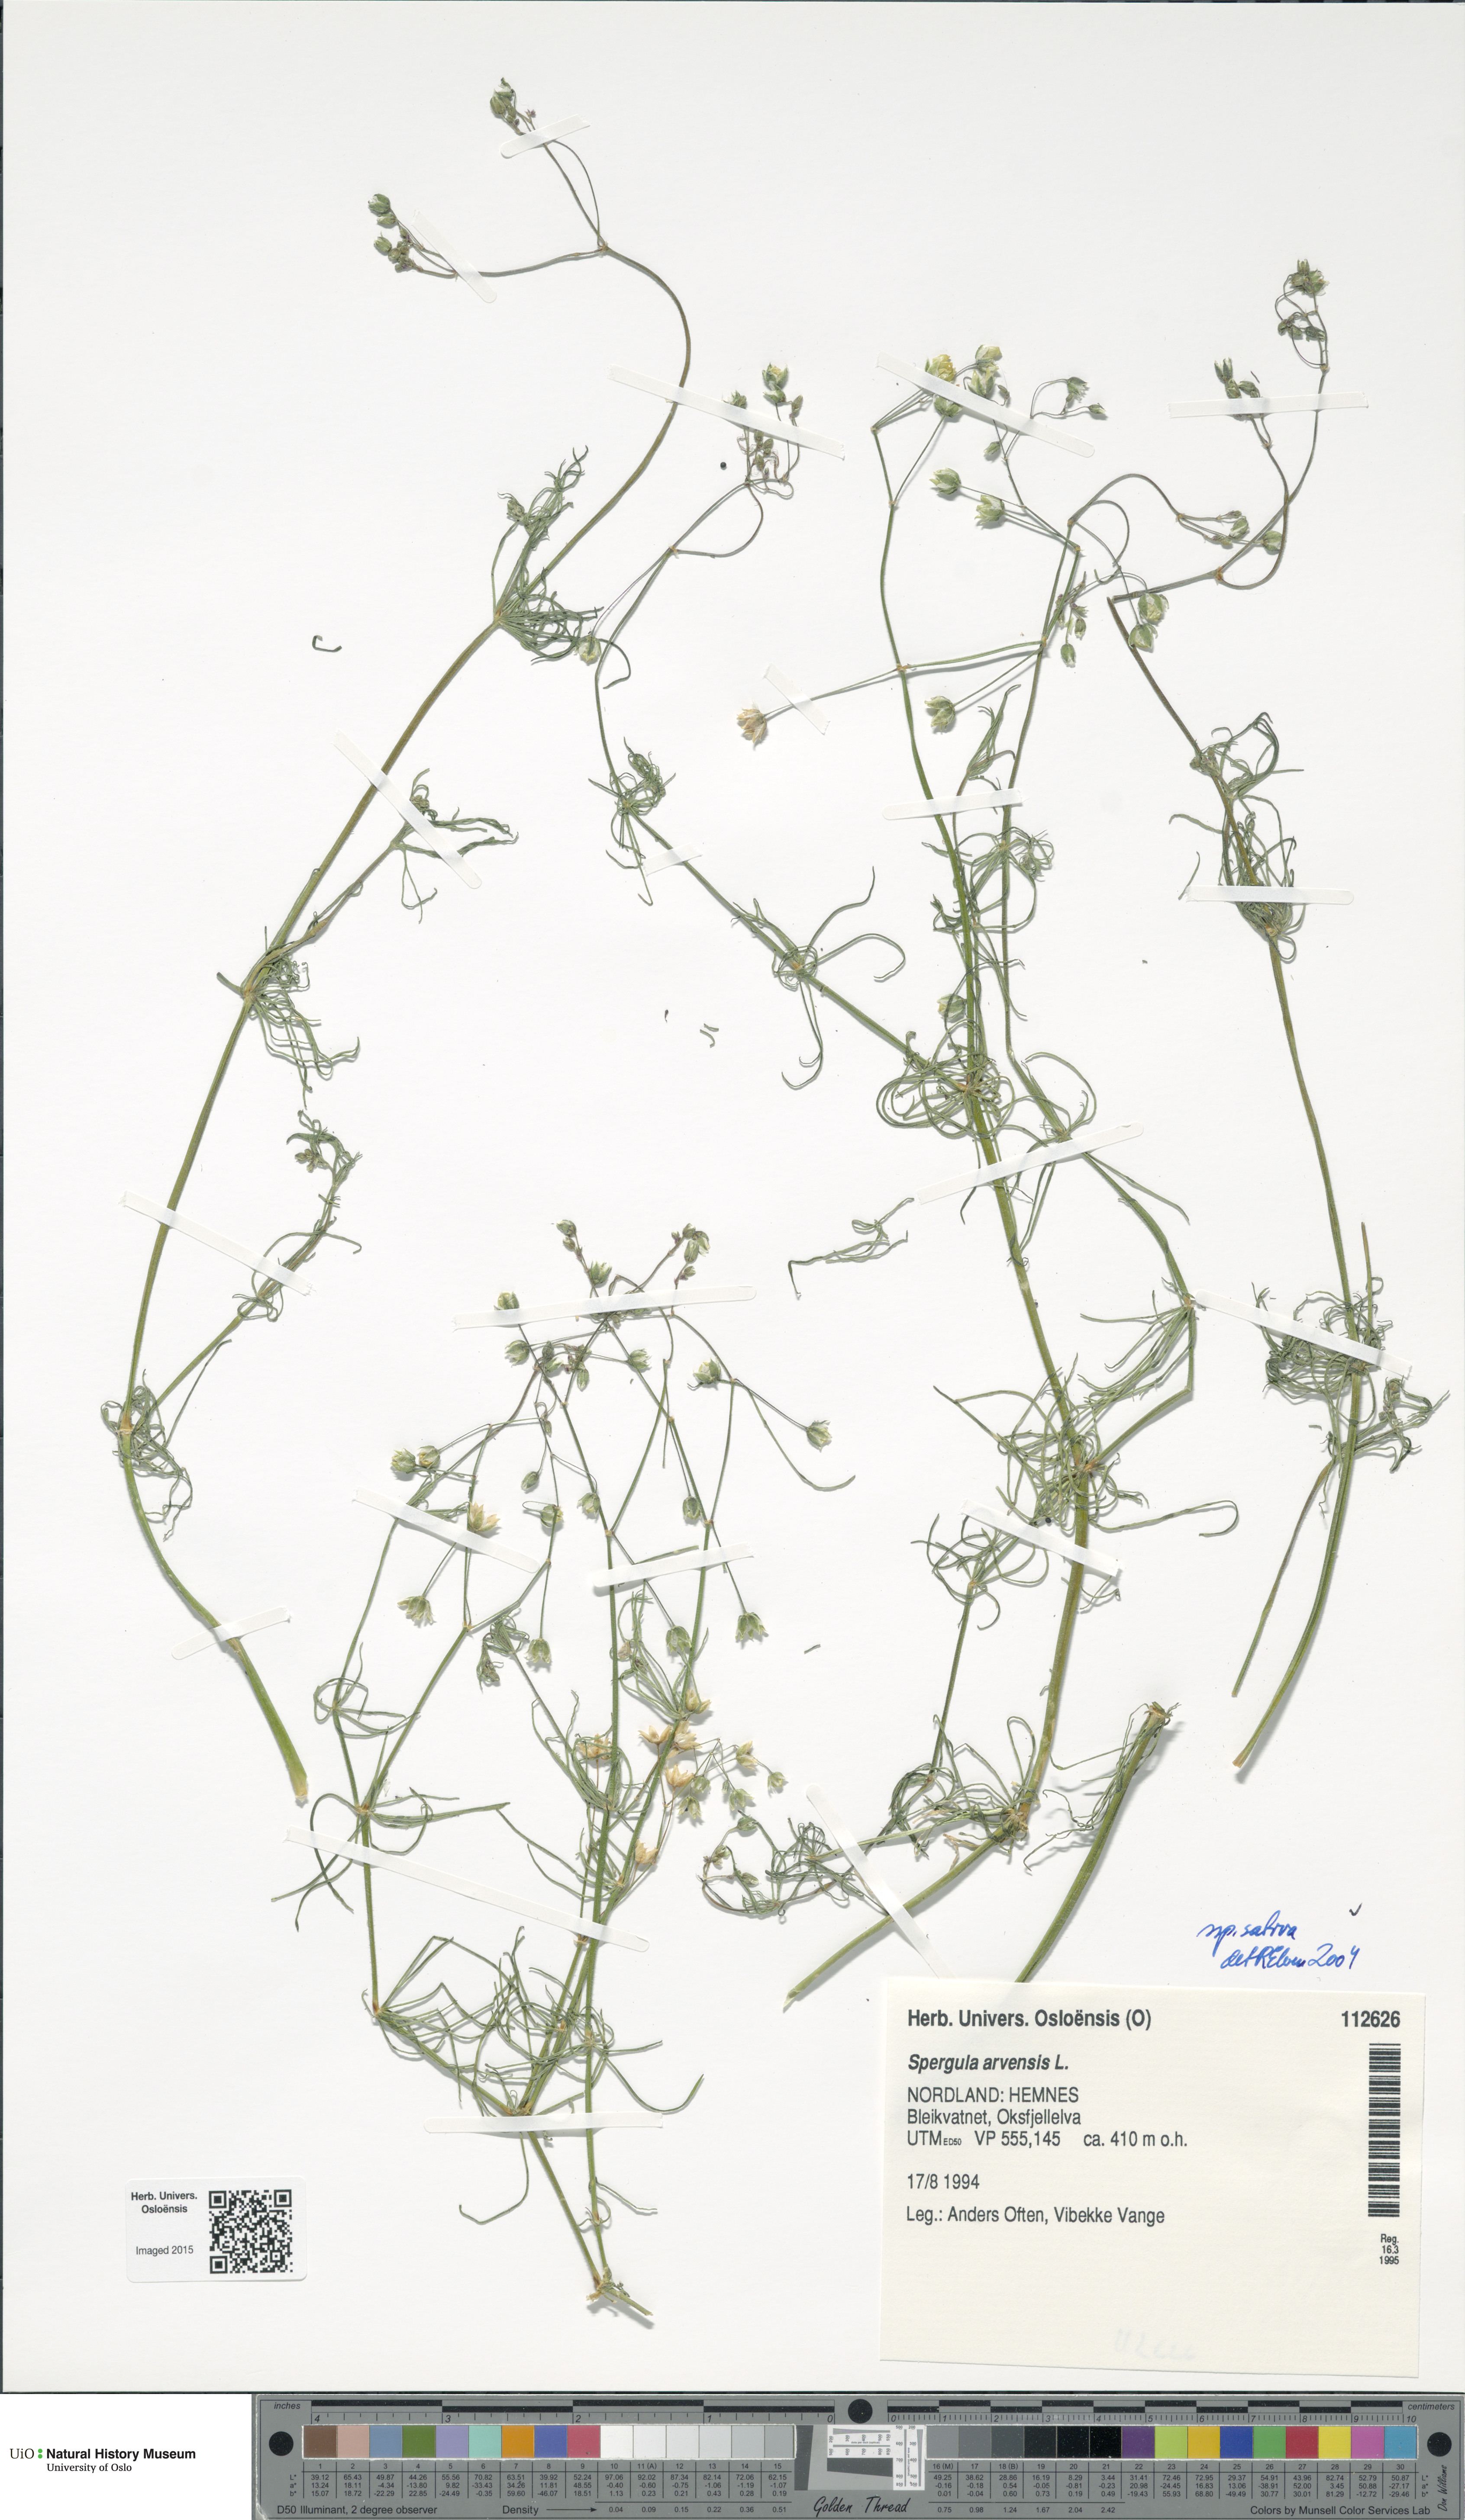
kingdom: Plantae
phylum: Tracheophyta
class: Magnoliopsida
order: Caryophyllales
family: Caryophyllaceae
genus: Spergula
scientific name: Spergula arvensis
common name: Corn spurrey
